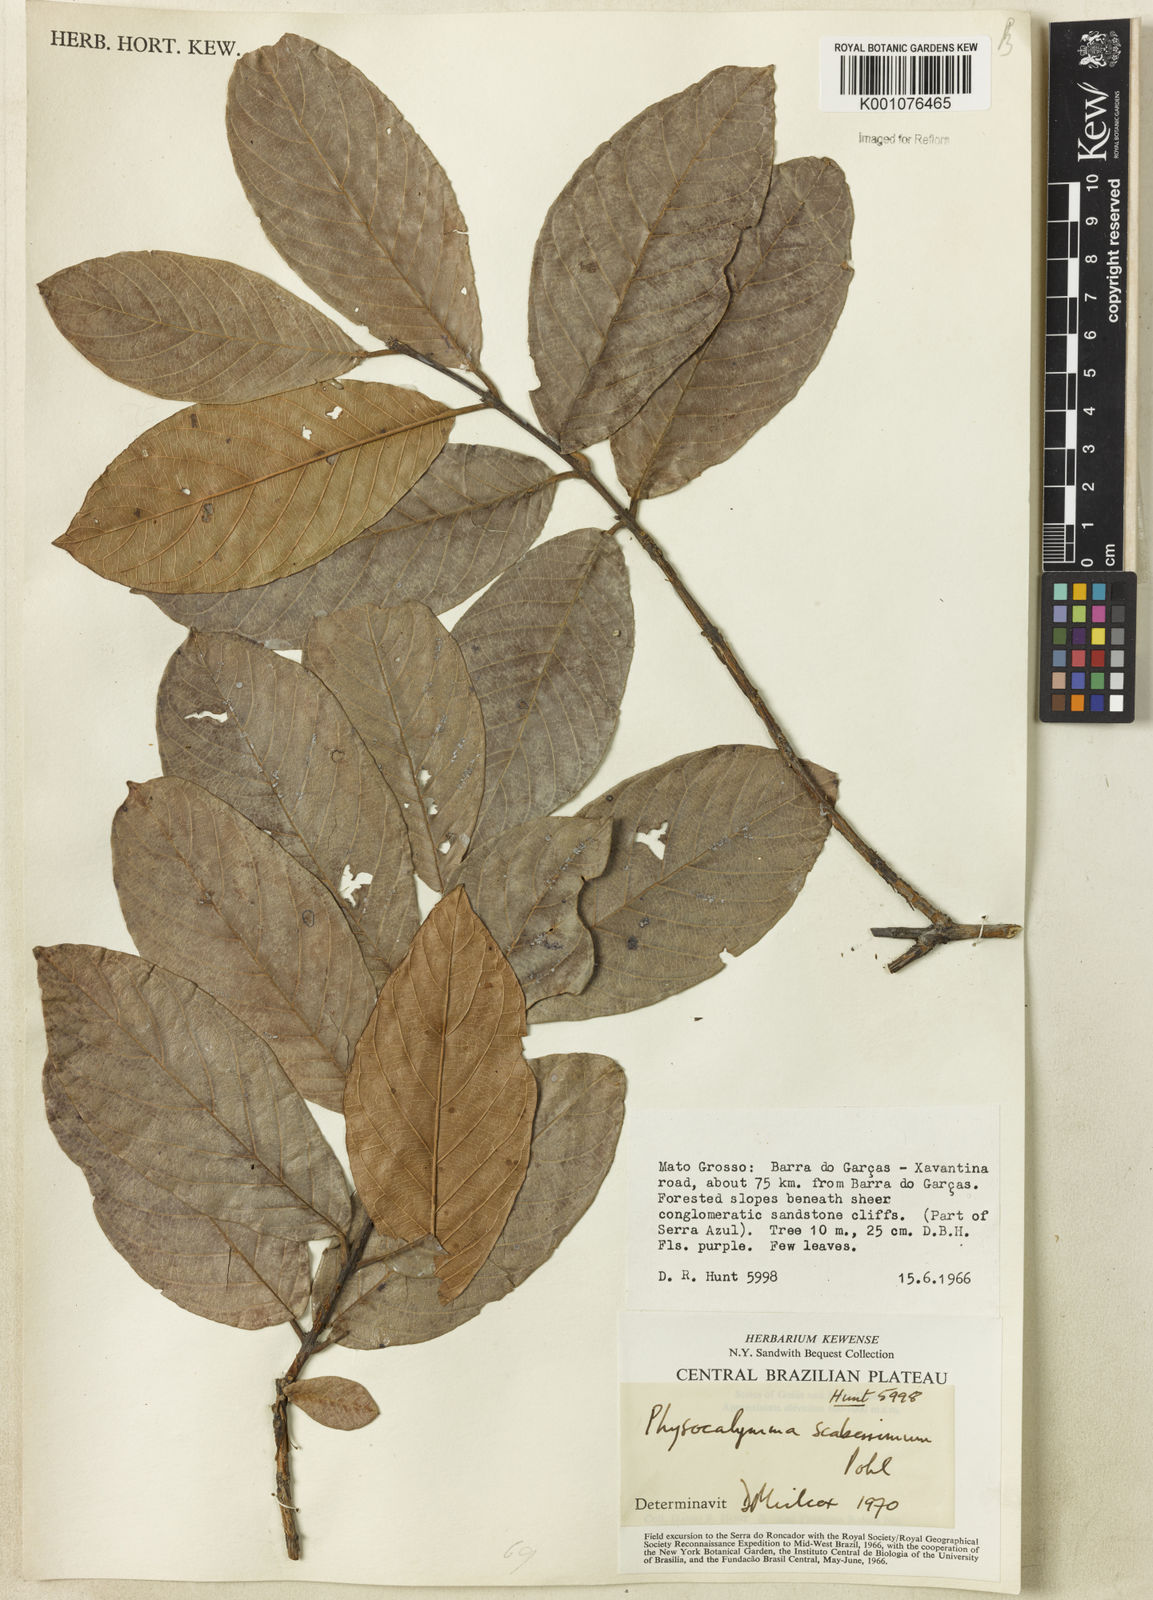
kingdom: Plantae
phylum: Tracheophyta
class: Magnoliopsida
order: Myrtales
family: Lythraceae
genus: Physocalymma
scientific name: Physocalymma scaberrimum
